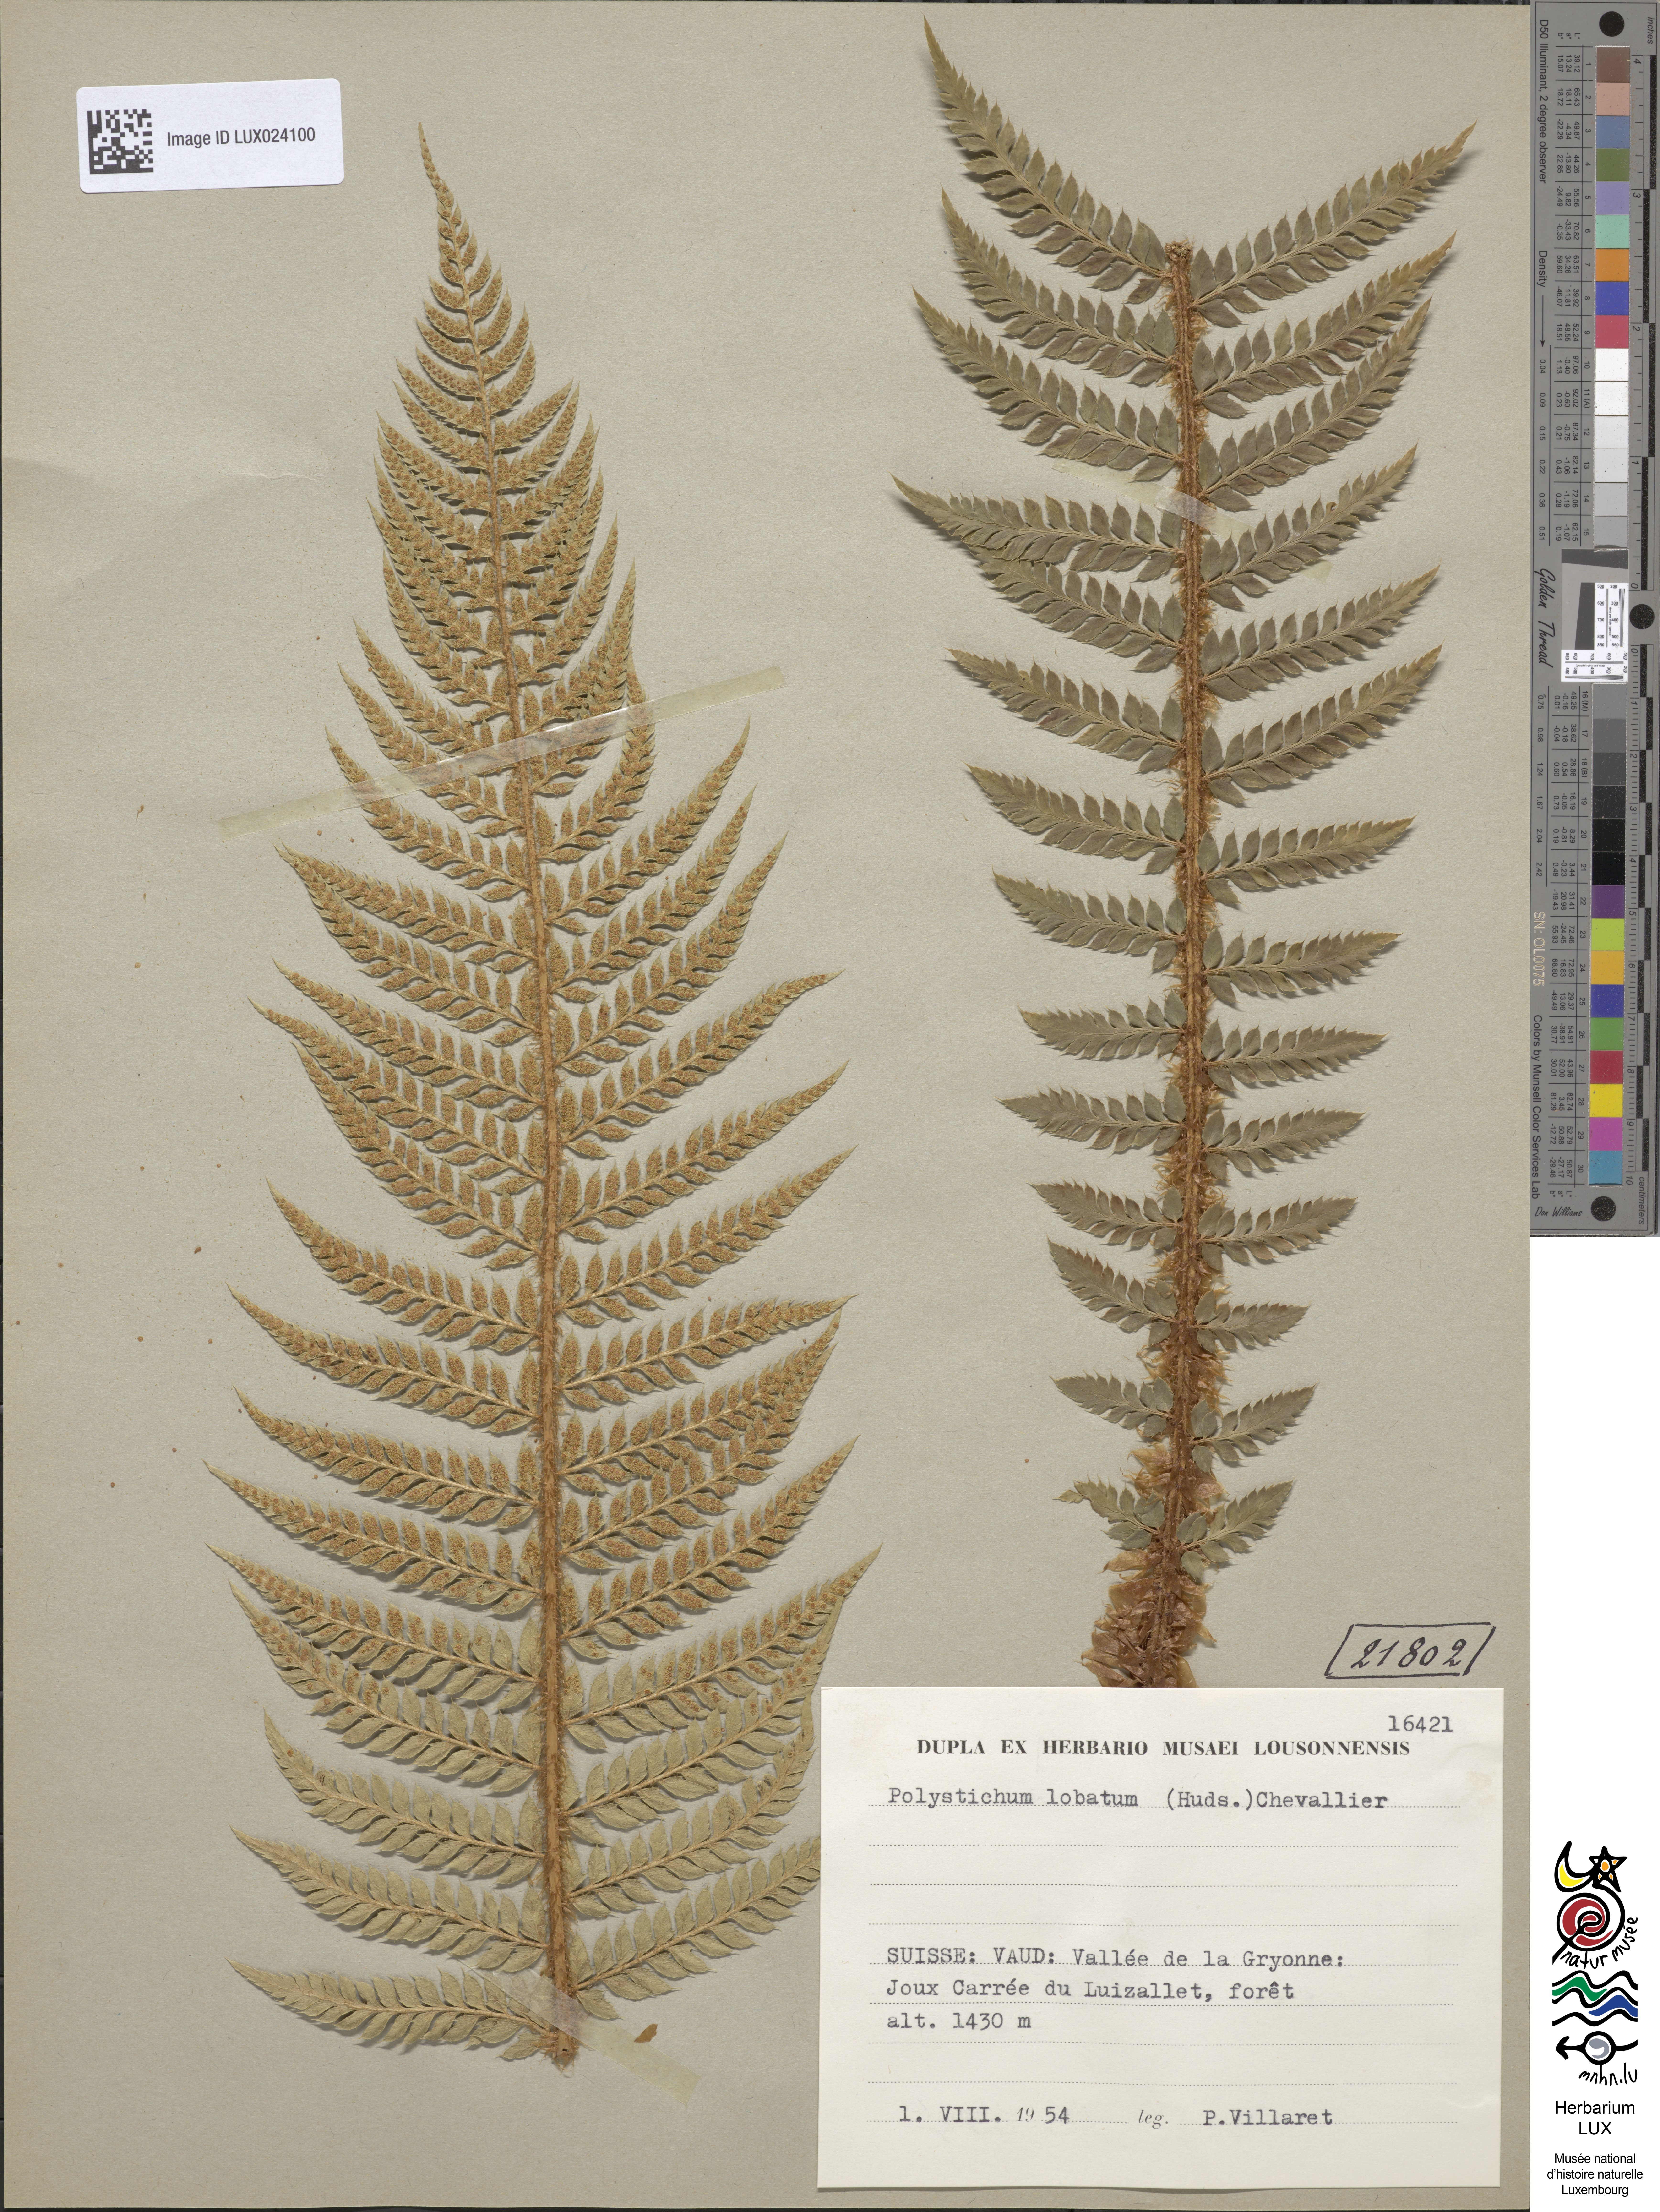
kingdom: Plantae
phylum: Tracheophyta
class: Polypodiopsida
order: Polypodiales
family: Dryopteridaceae
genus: Polystichum
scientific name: Polystichum aculeatum
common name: Hard shield-fern
